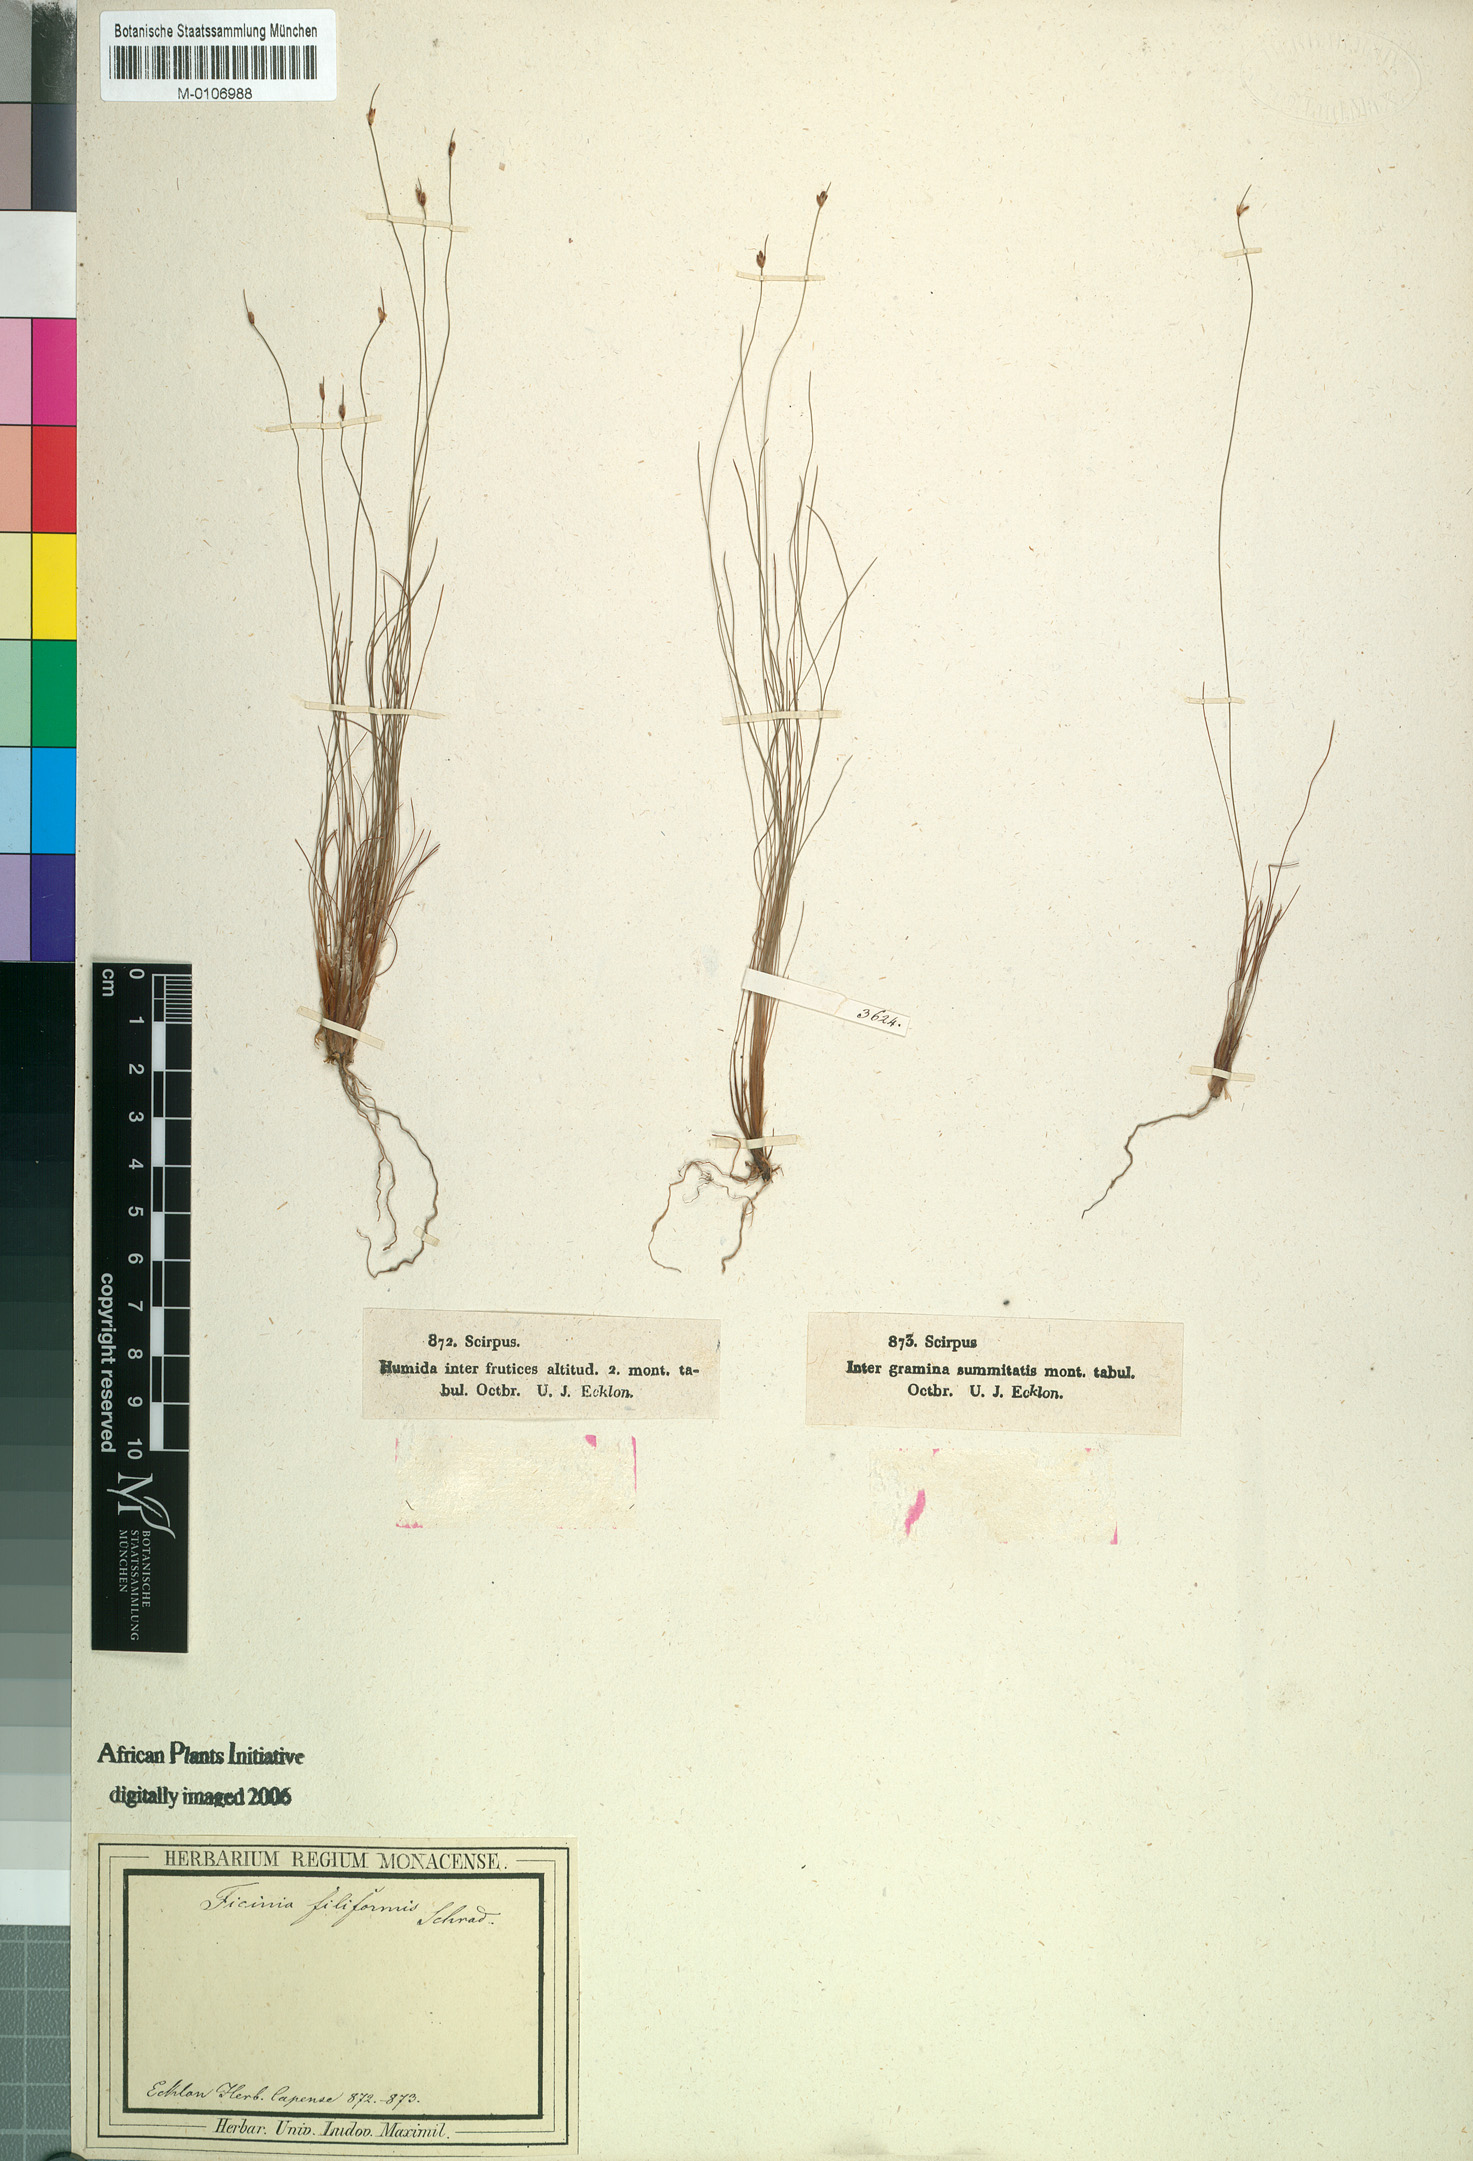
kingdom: Plantae
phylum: Tracheophyta
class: Liliopsida
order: Poales
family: Cyperaceae
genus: Ficinia
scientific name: Ficinia filiformis
